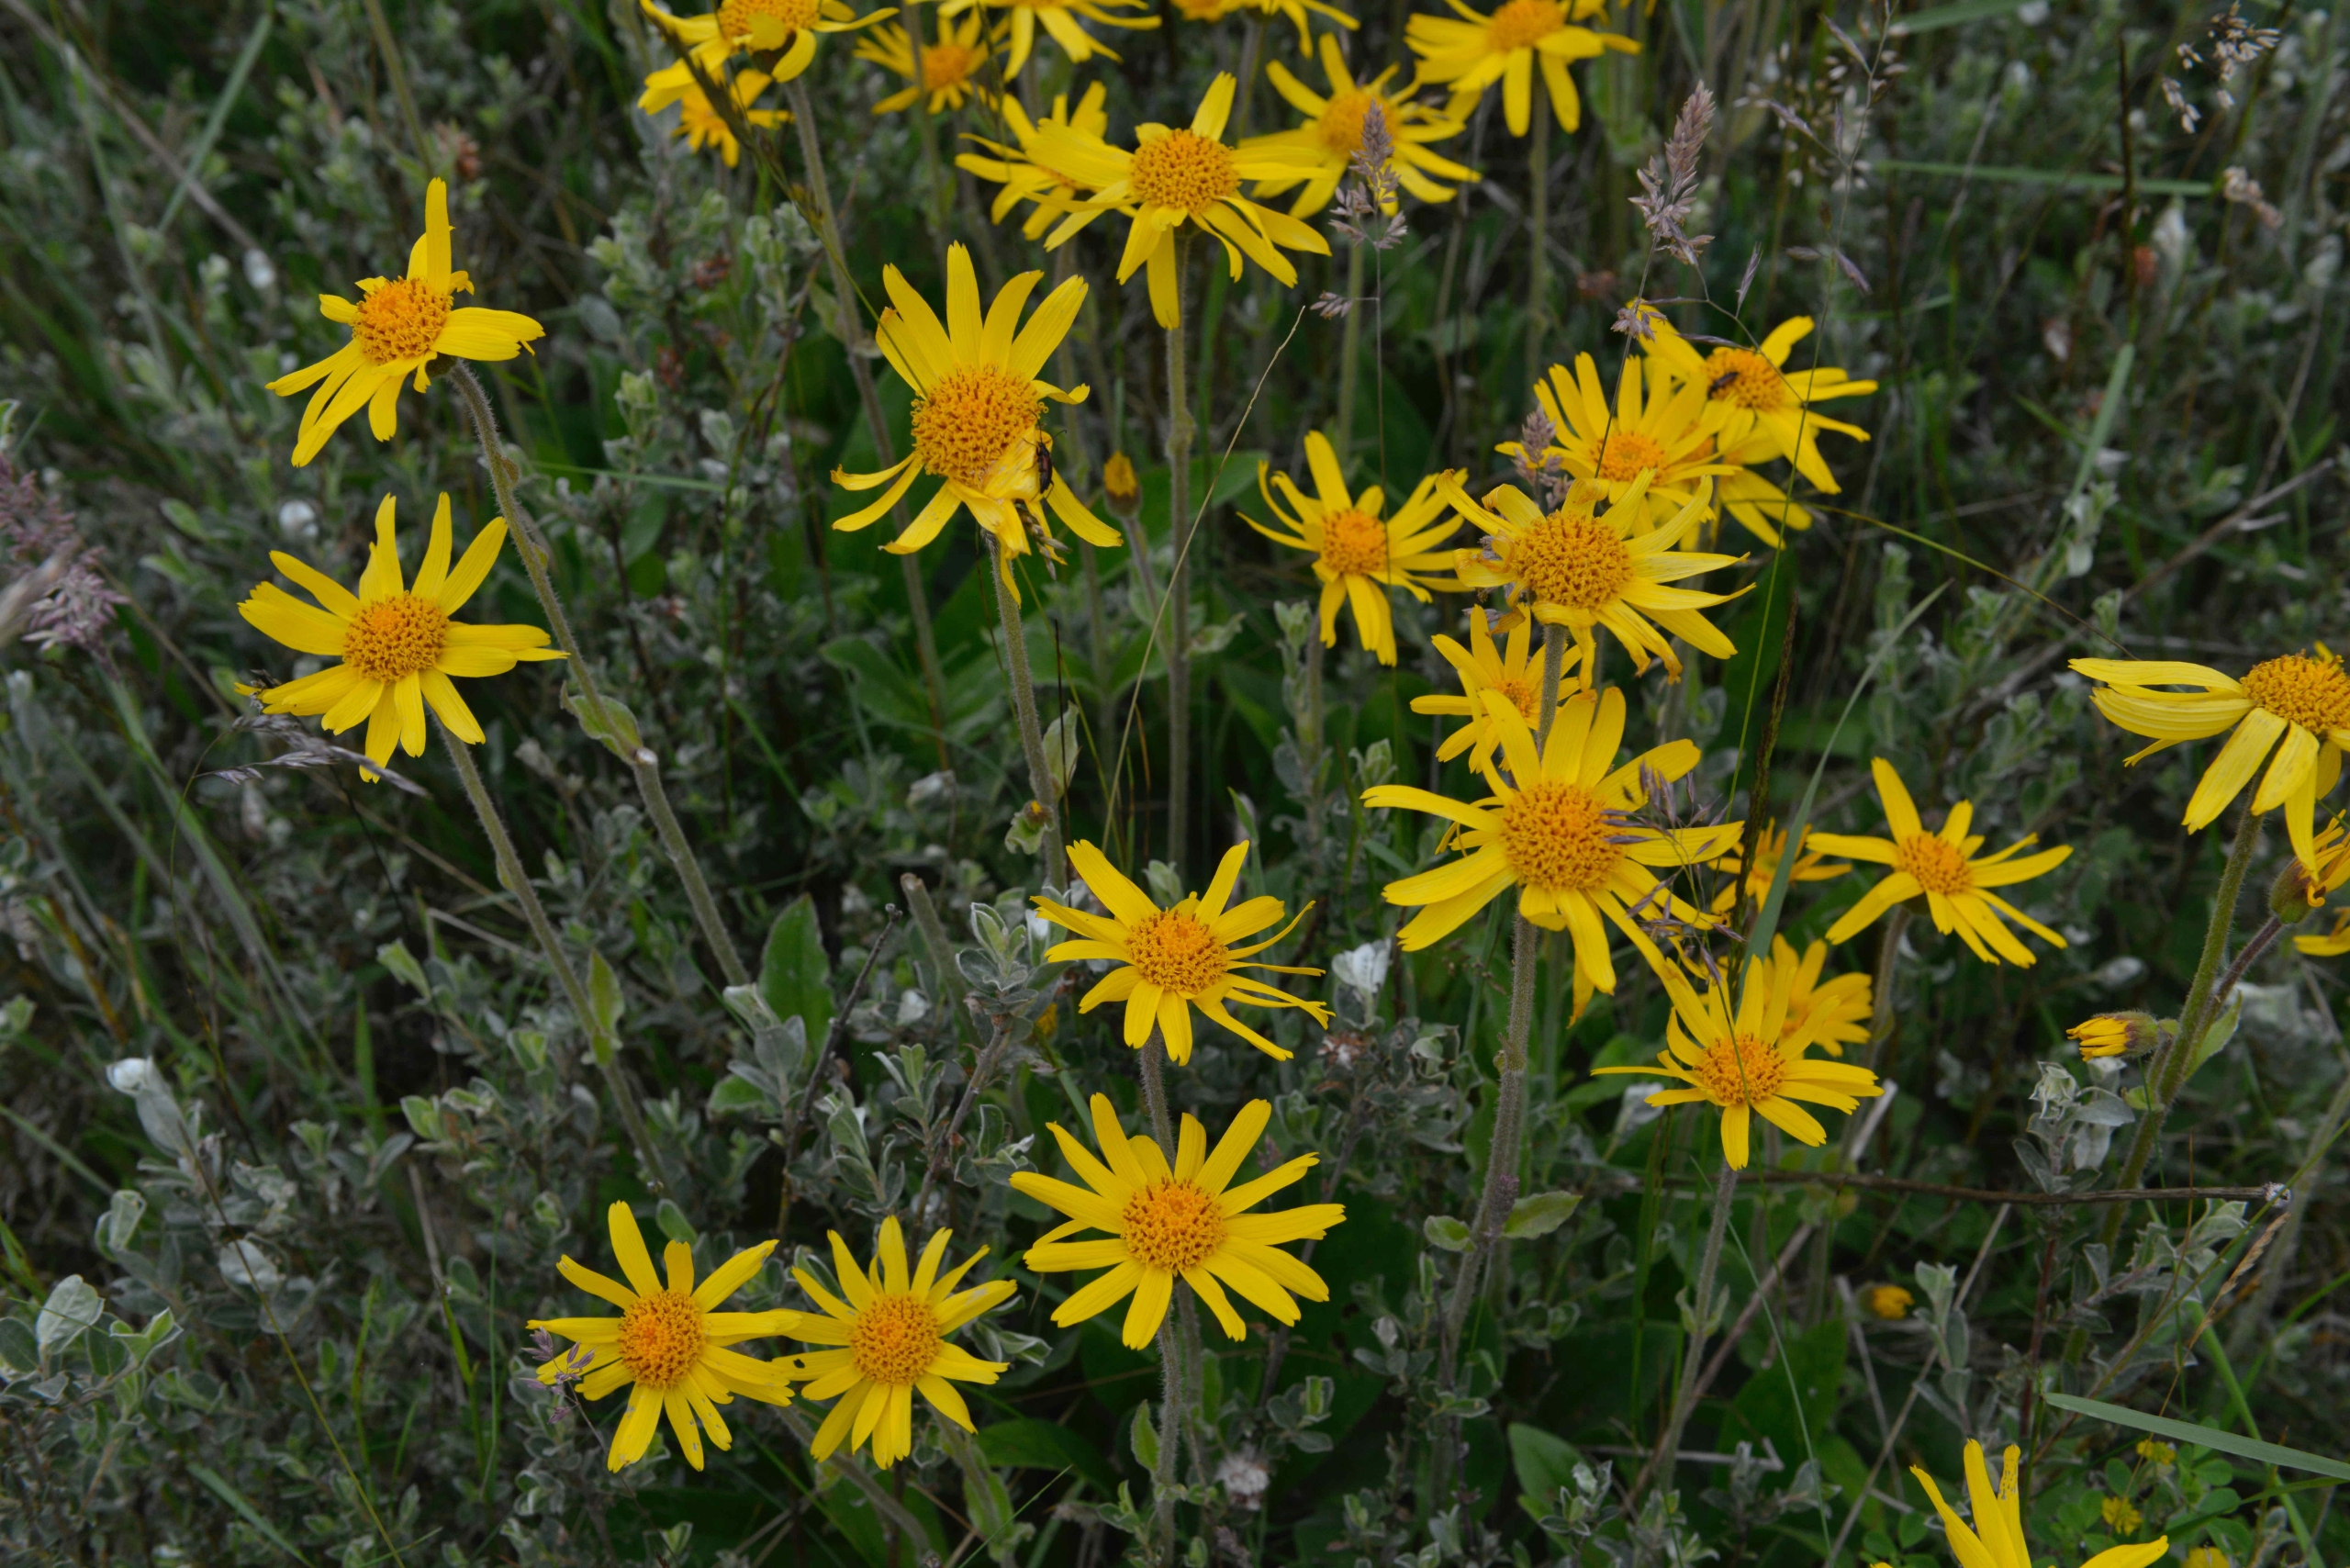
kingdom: Plantae
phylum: Tracheophyta
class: Magnoliopsida
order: Asterales
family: Asteraceae
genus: Arnica
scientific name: Arnica montana
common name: Guldblomme
